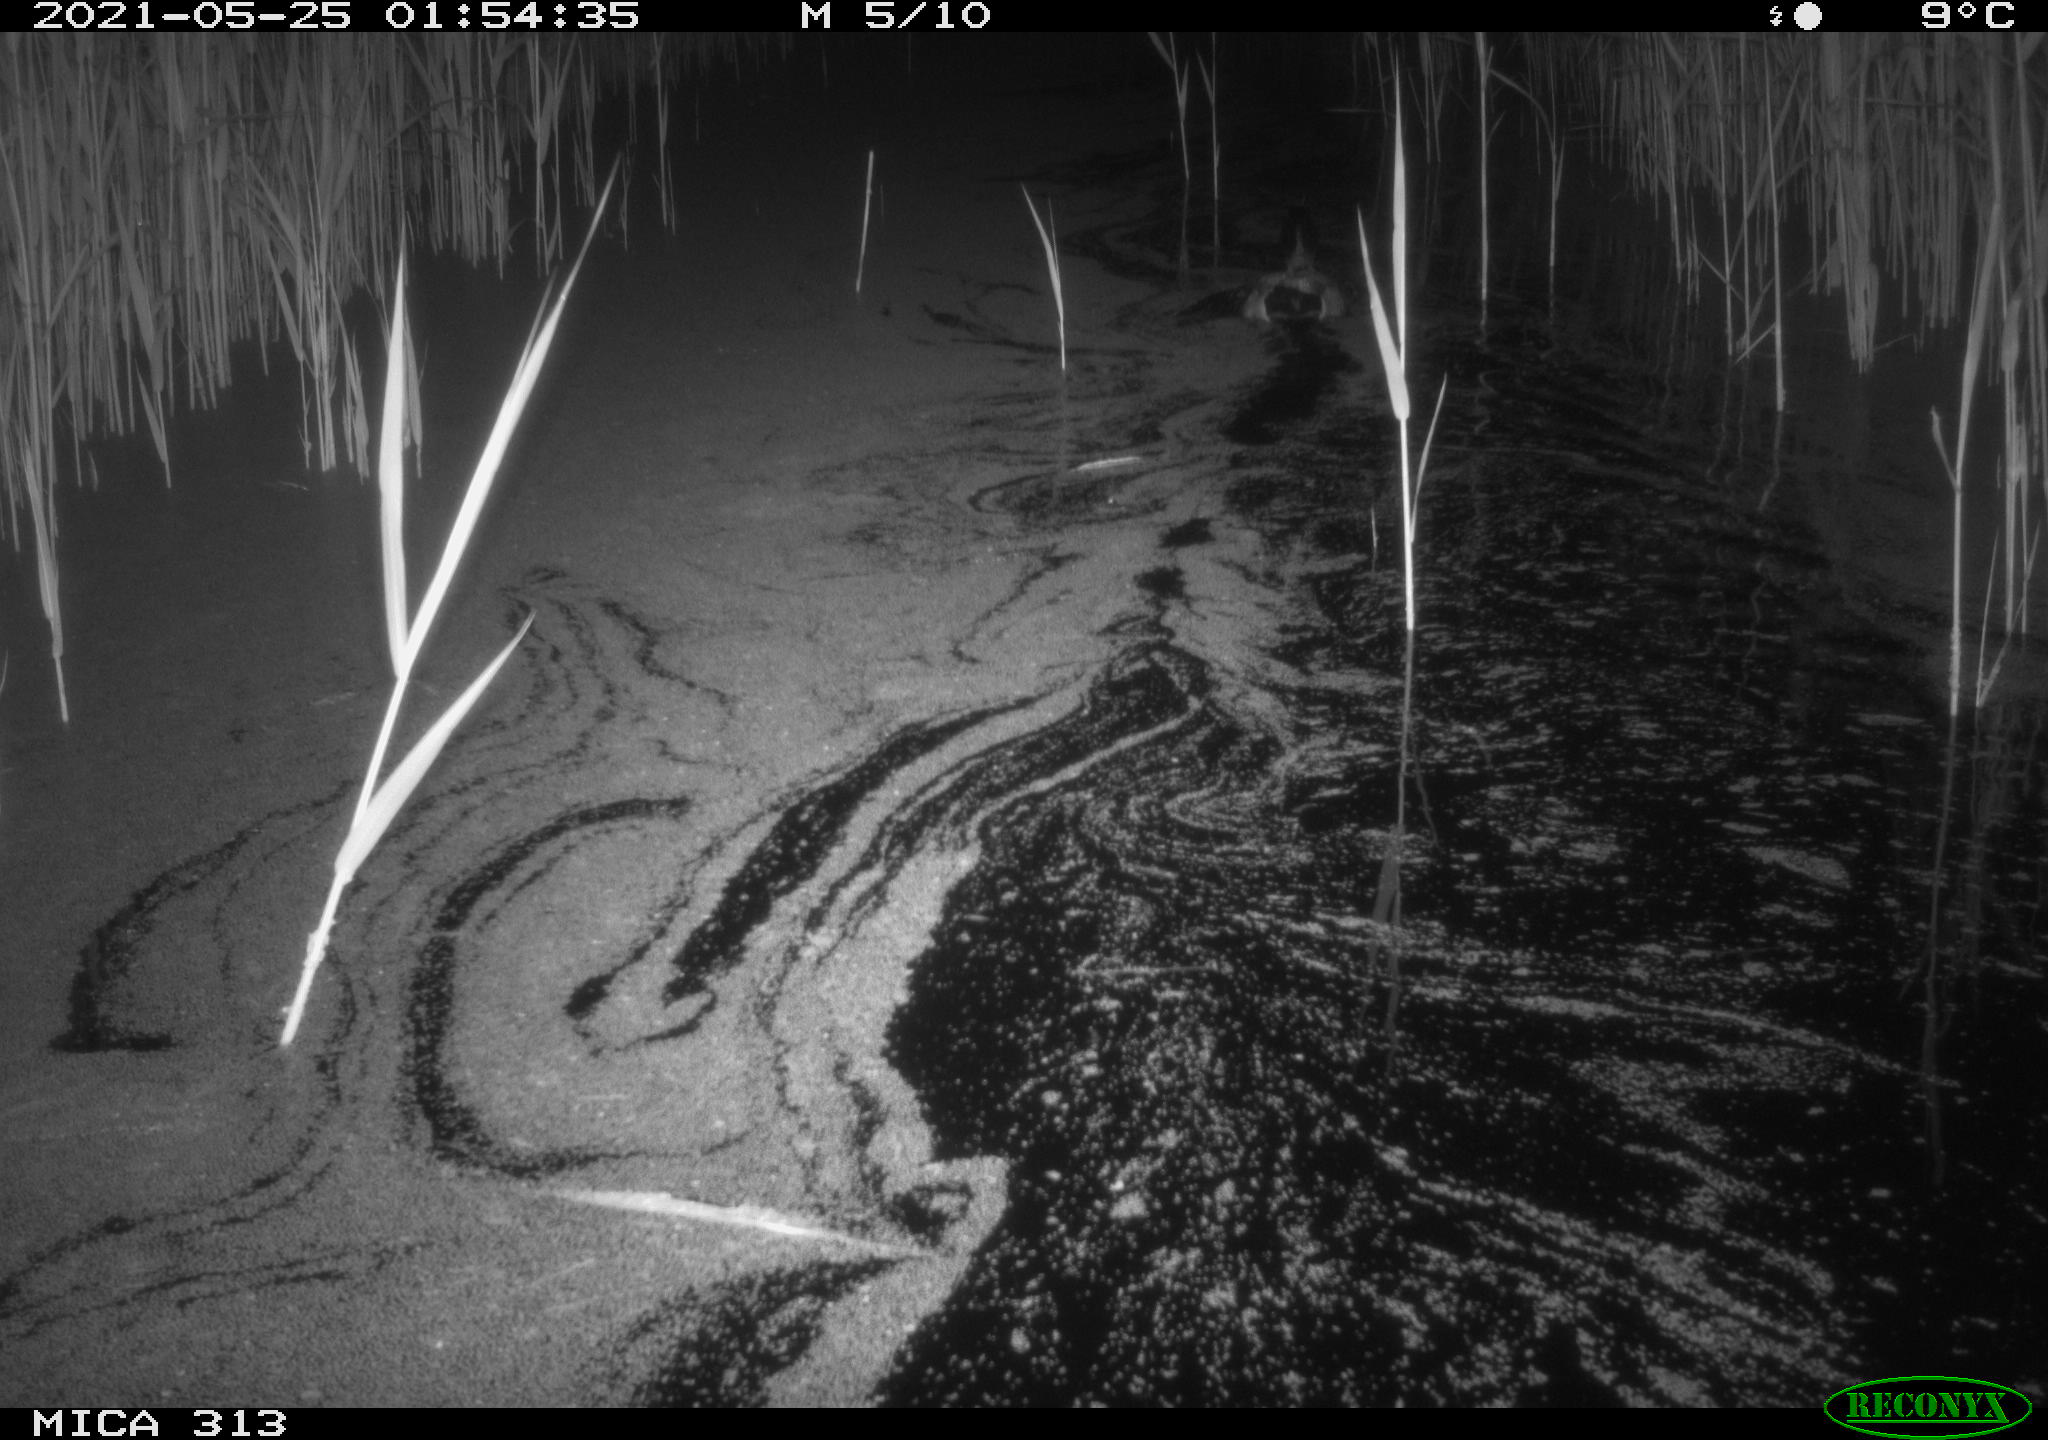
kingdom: Animalia
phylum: Chordata
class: Aves
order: Anseriformes
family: Anatidae
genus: Anas
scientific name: Anas platyrhynchos
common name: Mallard
